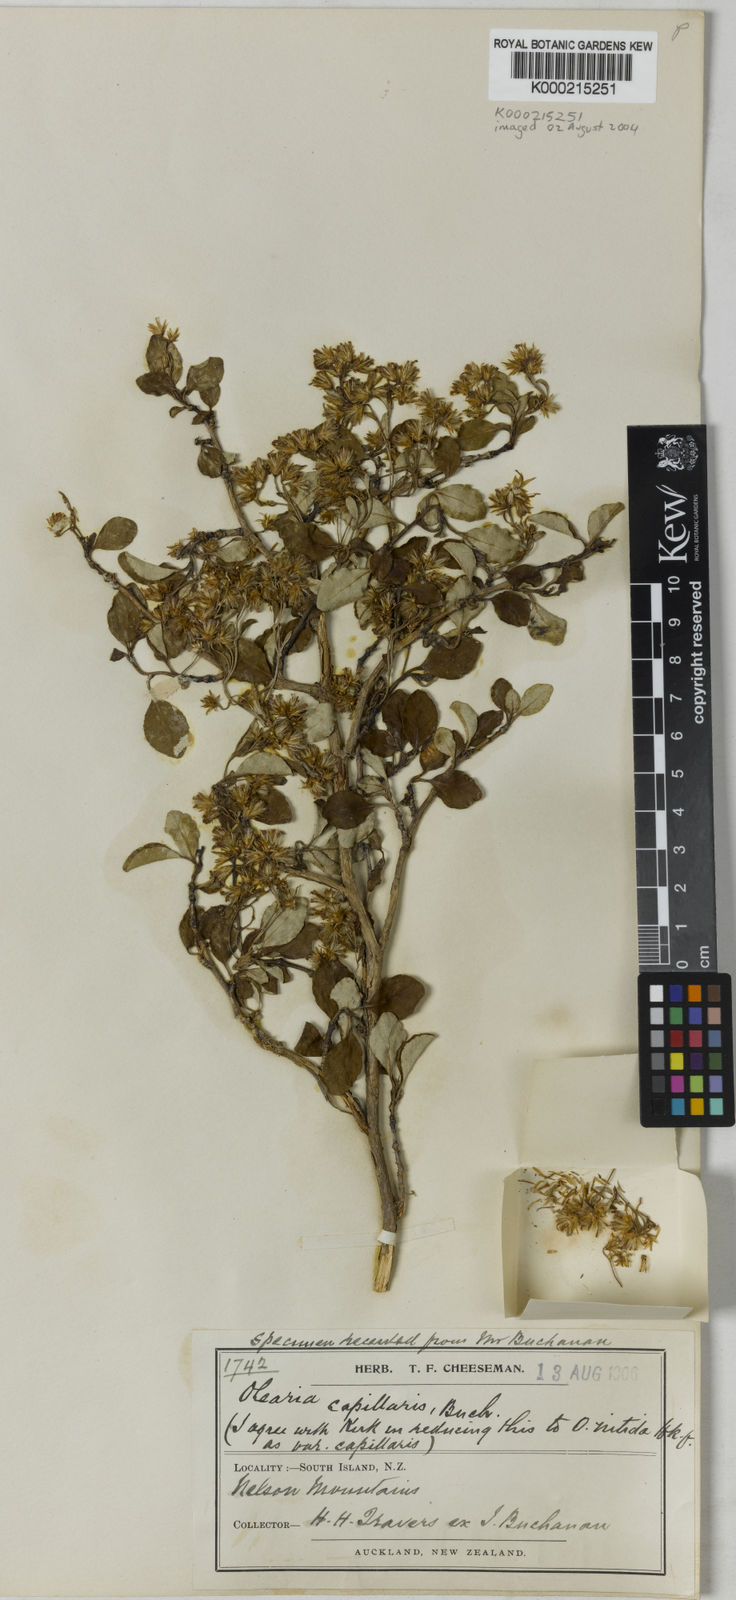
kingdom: Plantae
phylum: Tracheophyta
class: Magnoliopsida
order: Asterales
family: Asteraceae
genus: Olearia
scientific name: Olearia capillaris
